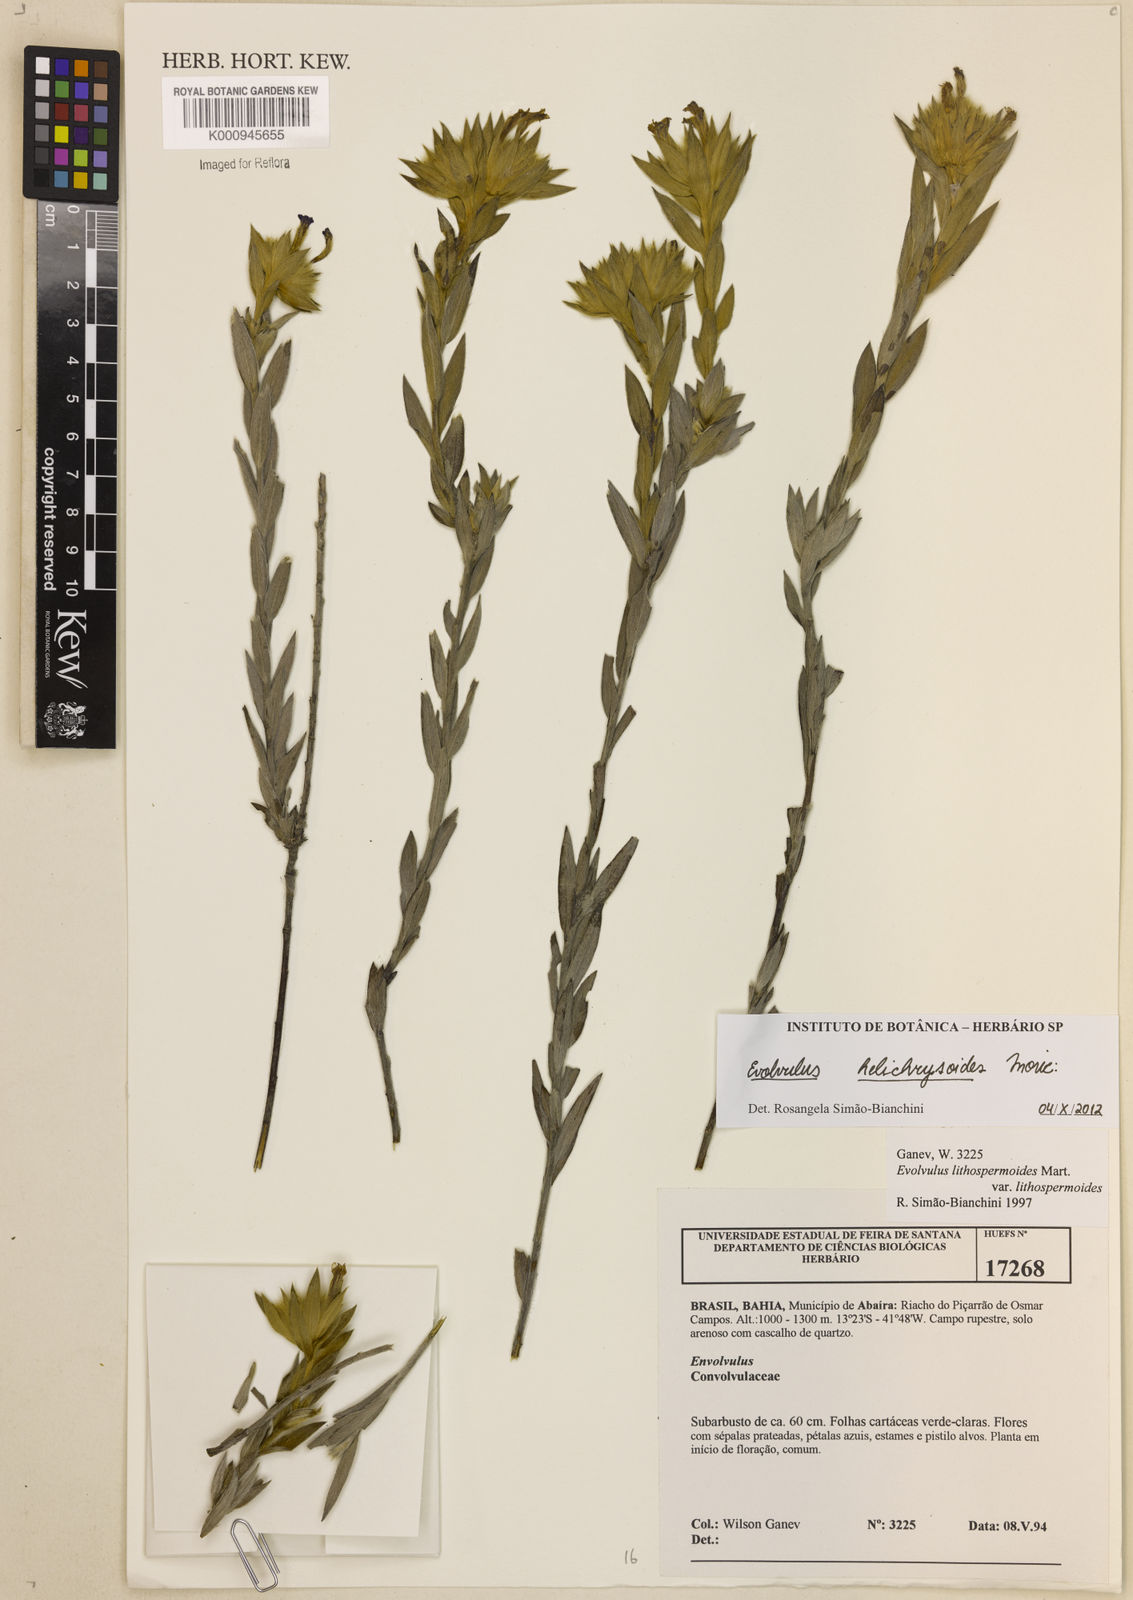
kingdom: Plantae
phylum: Tracheophyta
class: Magnoliopsida
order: Solanales
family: Convolvulaceae
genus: Evolvulus
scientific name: Evolvulus helichrysoides
